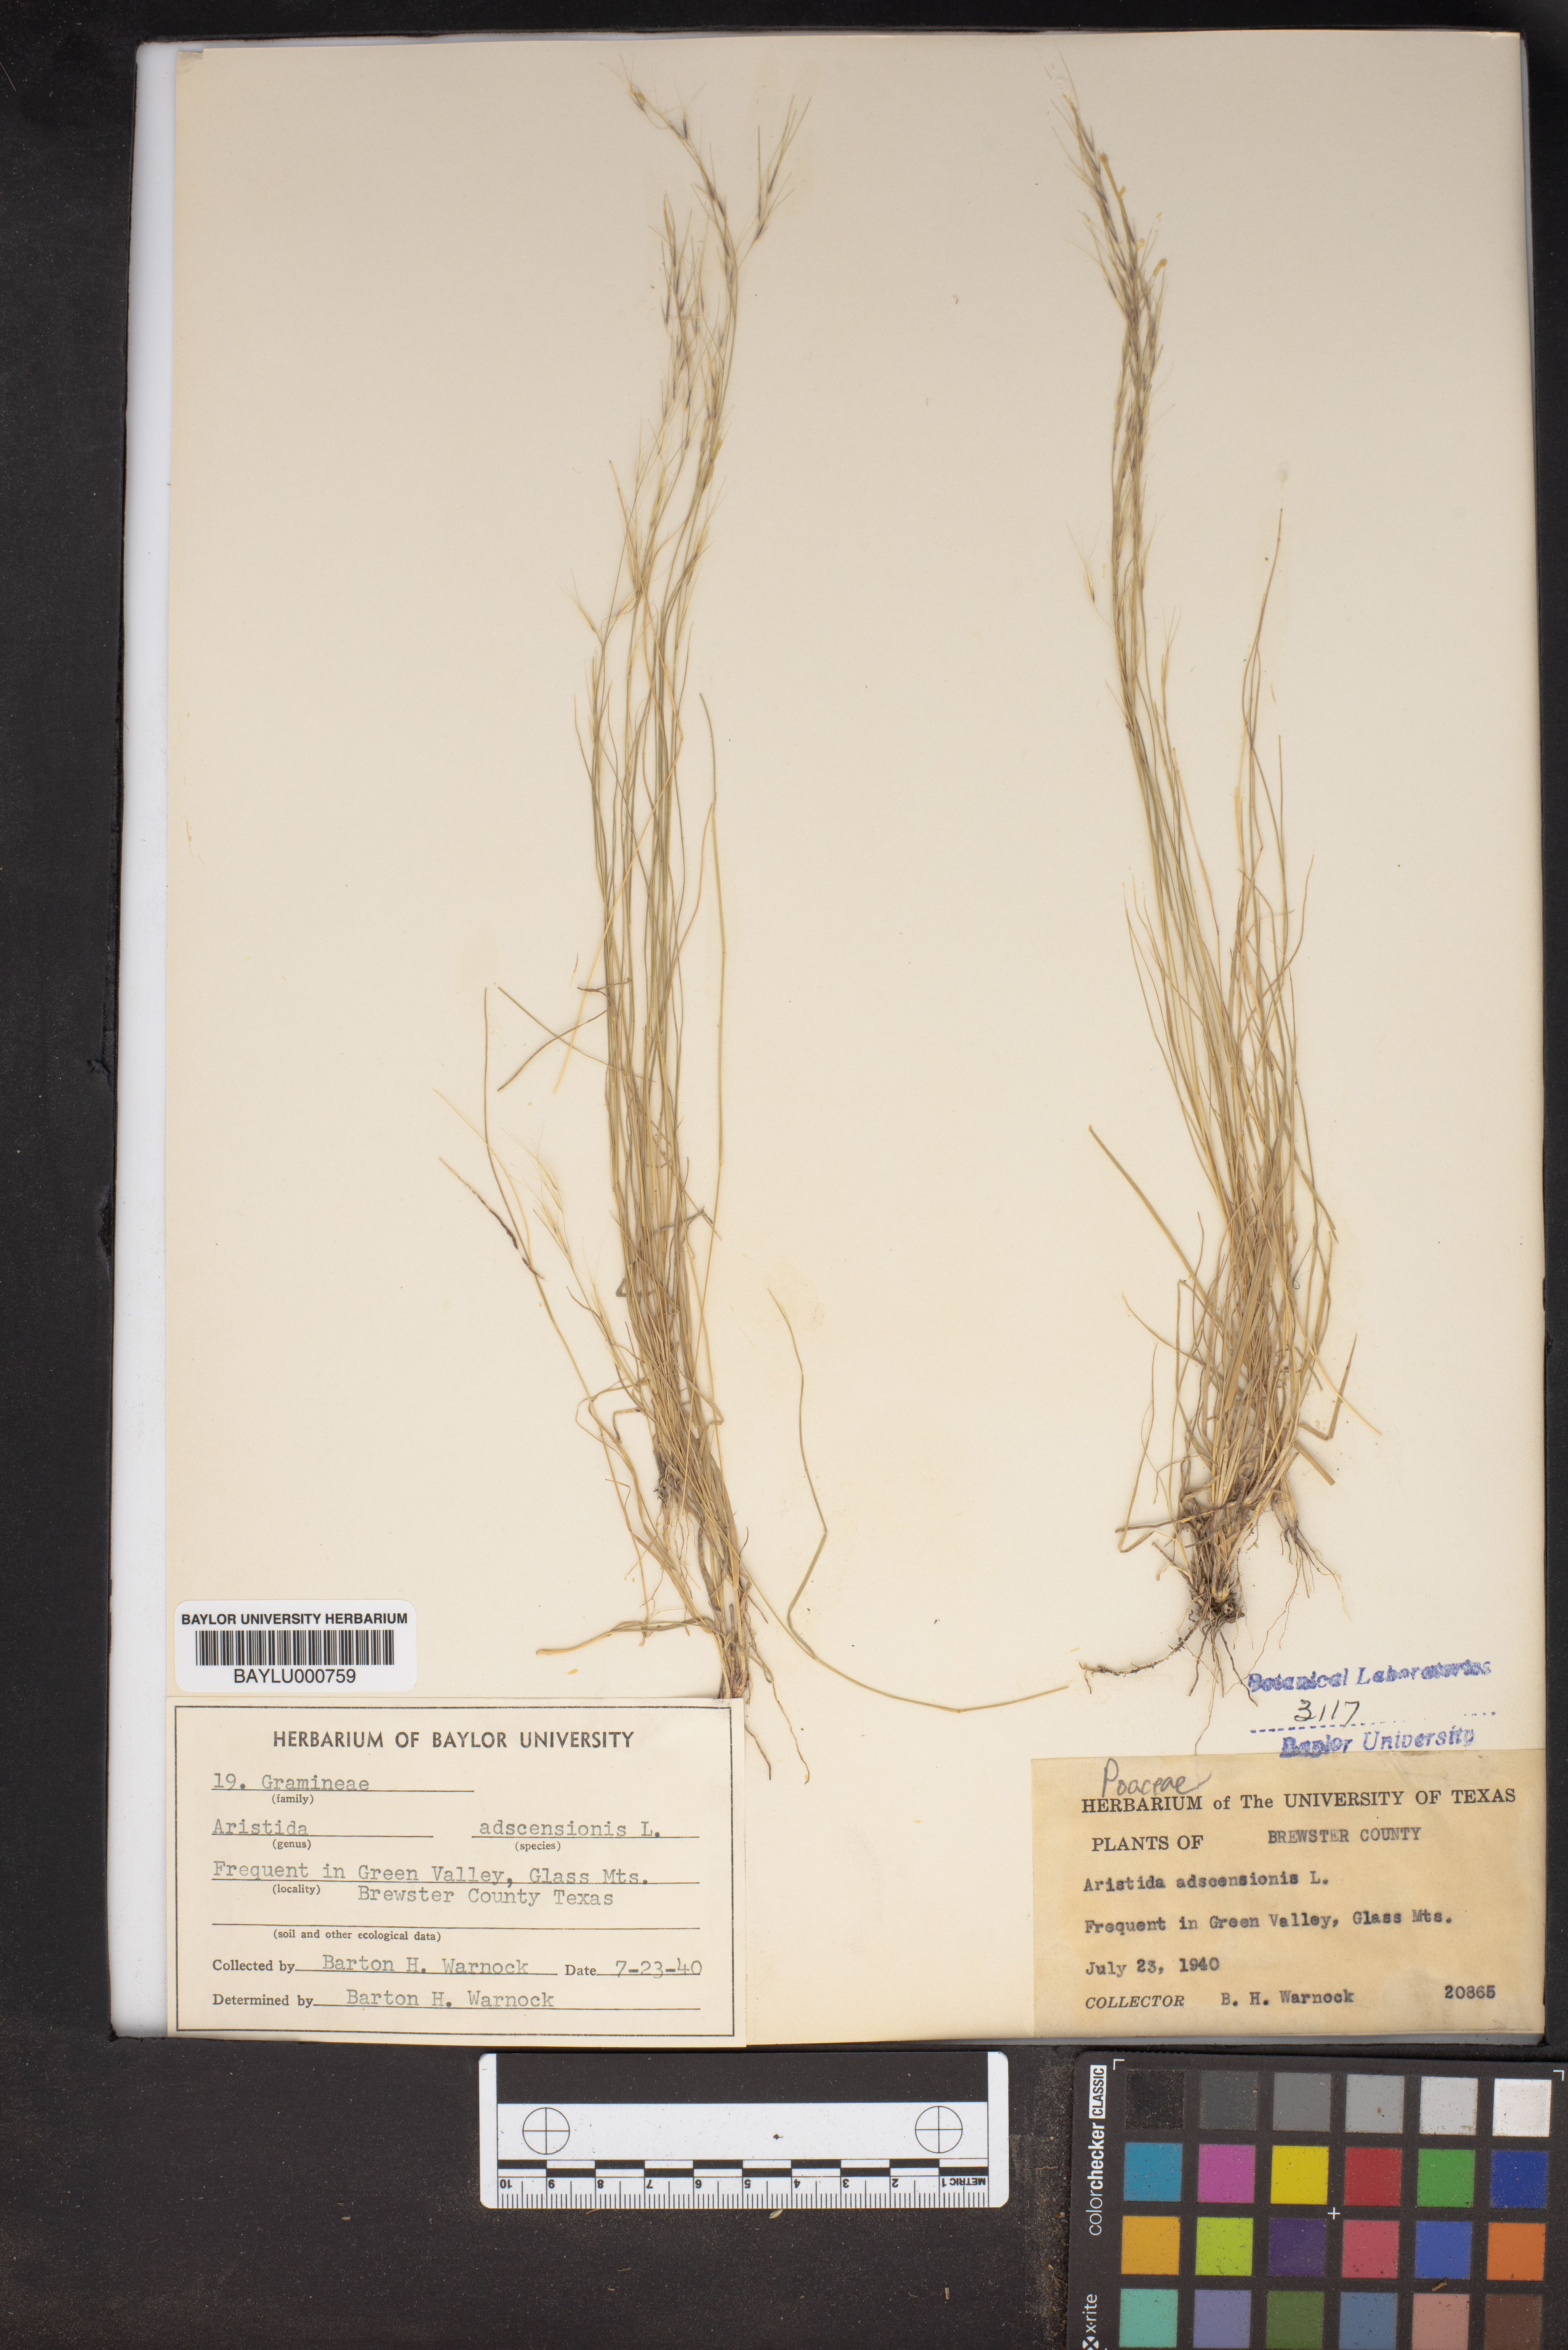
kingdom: Plantae
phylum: Tracheophyta
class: Liliopsida
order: Poales
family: Poaceae
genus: Aristida
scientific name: Aristida adscensionis
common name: Sixweeks threeawn
